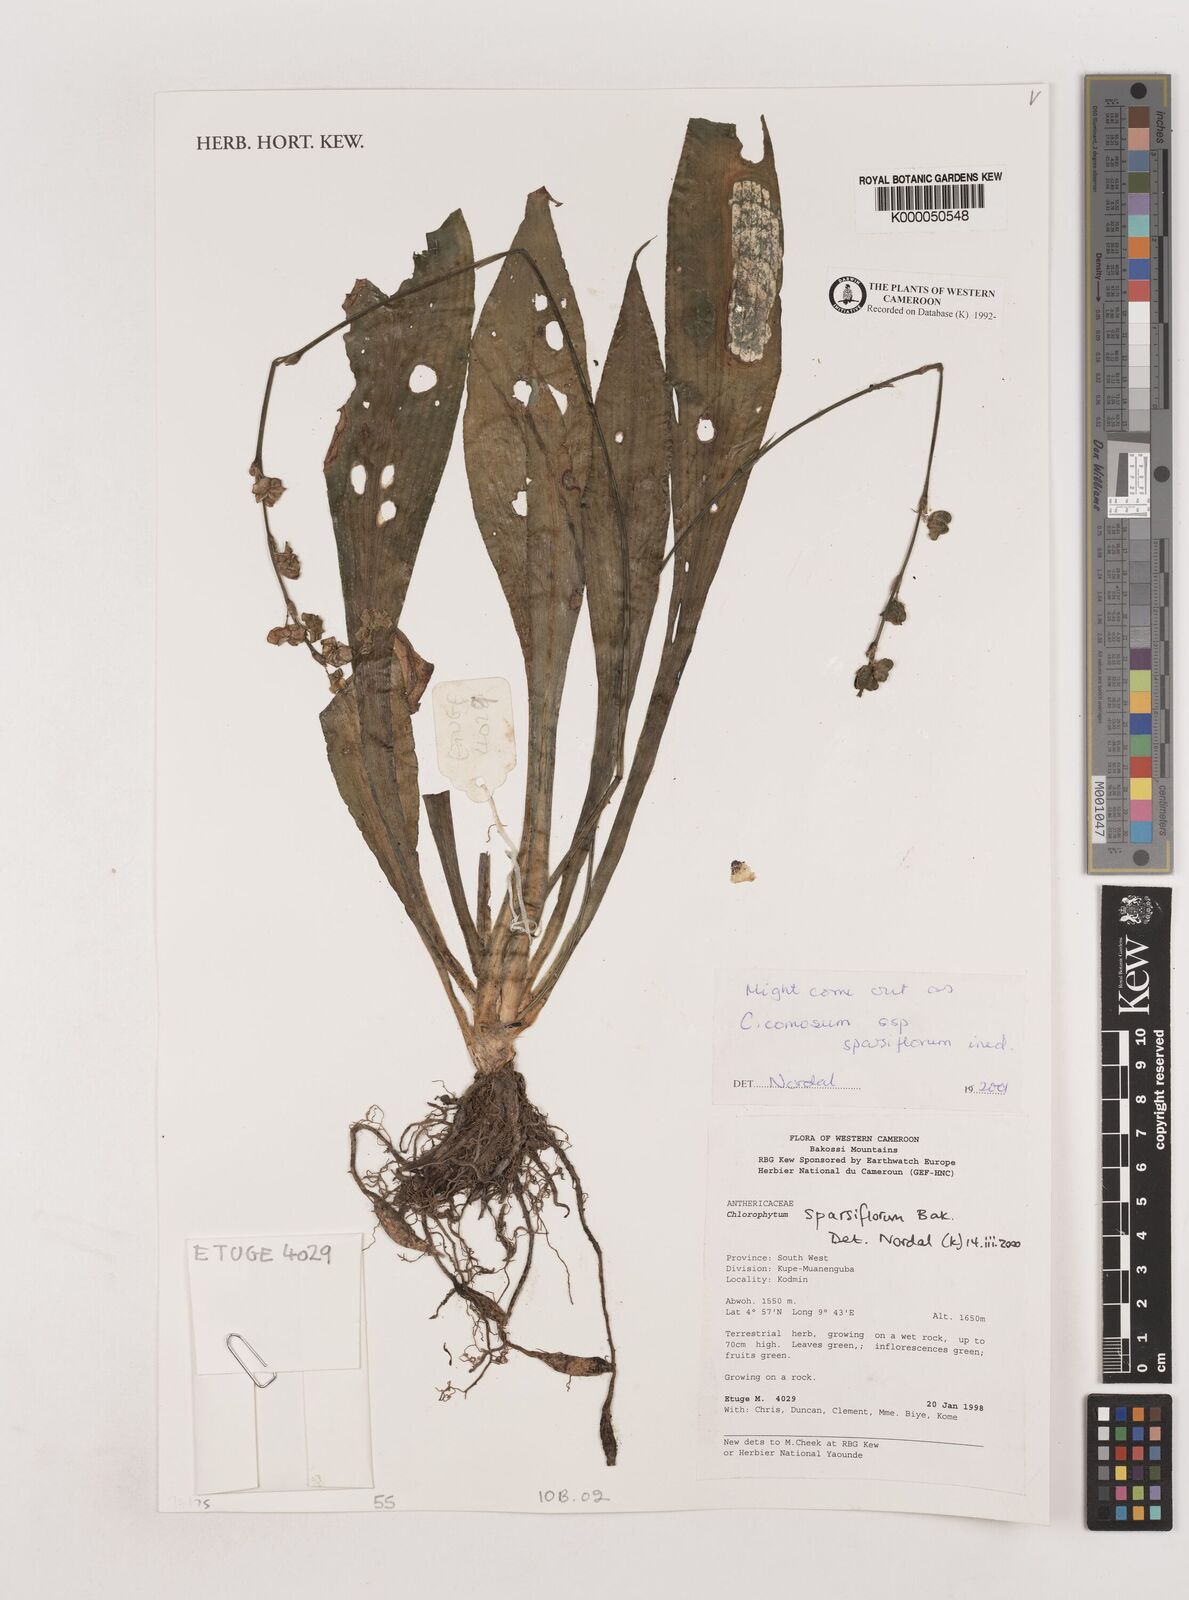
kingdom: Plantae
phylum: Tracheophyta
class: Liliopsida
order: Asparagales
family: Asparagaceae
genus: Chlorophytum
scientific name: Chlorophytum sparsiflorum
